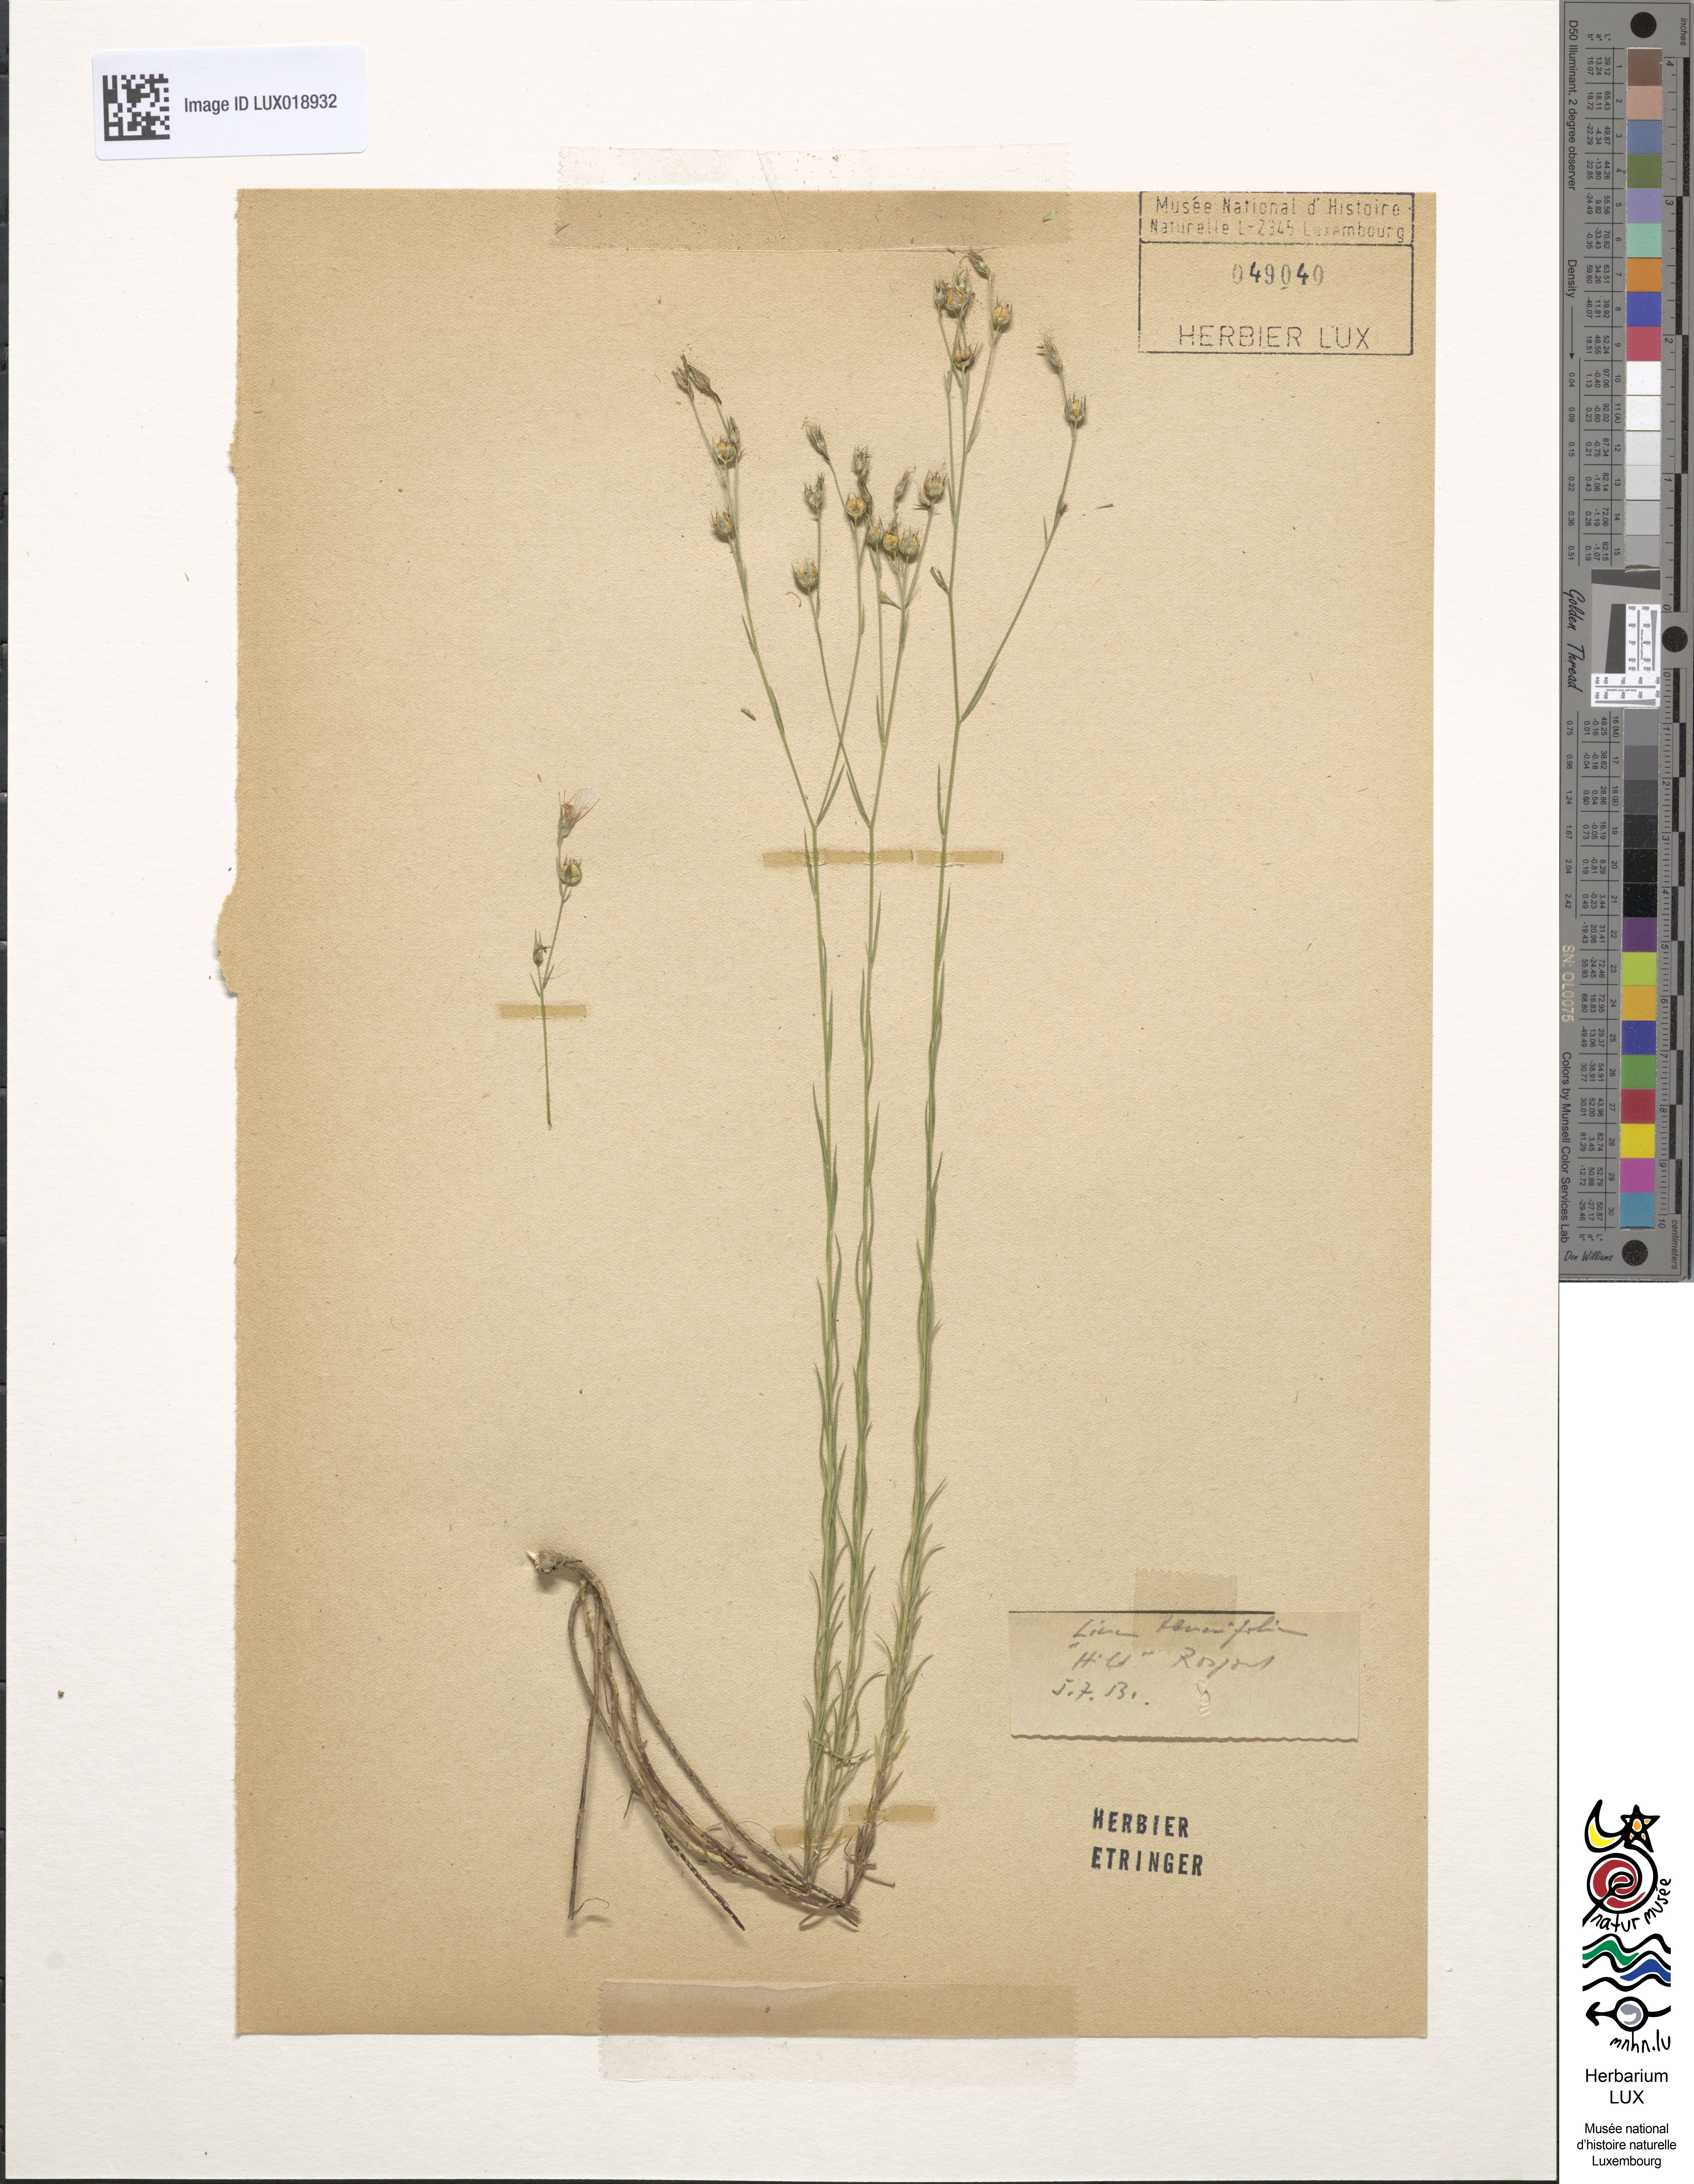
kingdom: Plantae
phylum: Tracheophyta
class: Magnoliopsida
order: Malpighiales
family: Linaceae
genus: Linum
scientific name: Linum tenuifolium
